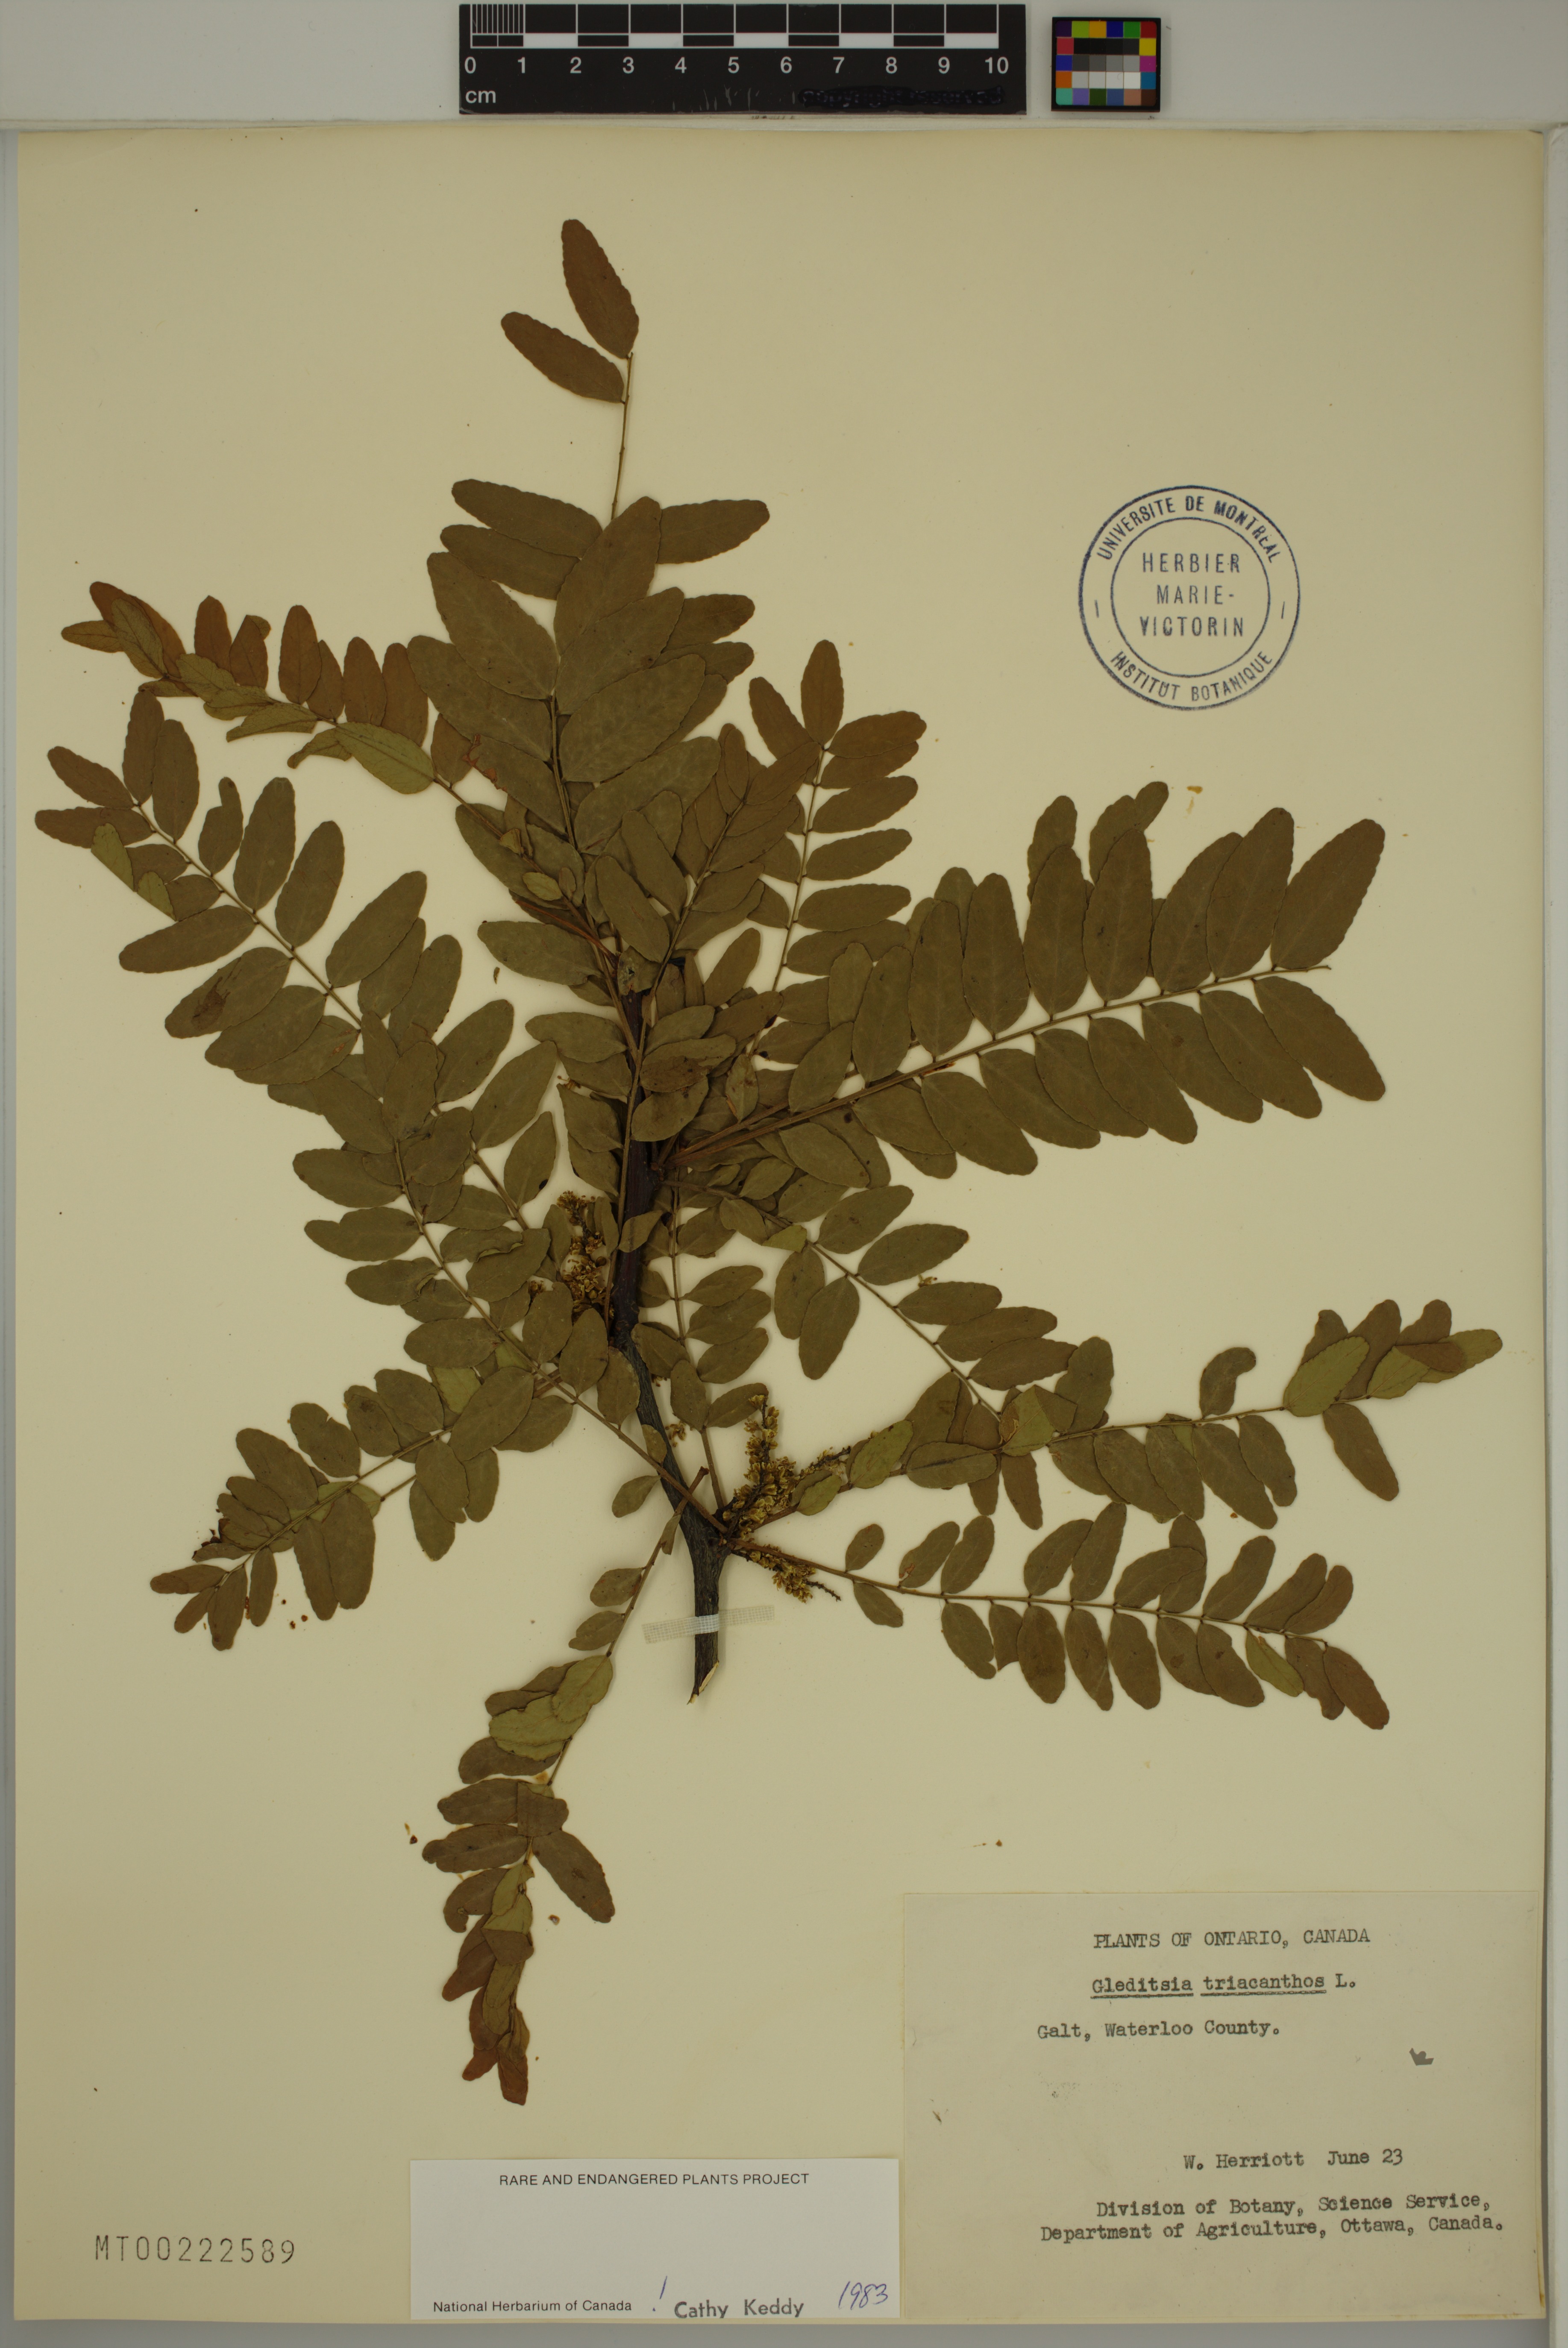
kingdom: Plantae
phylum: Tracheophyta
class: Magnoliopsida
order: Fabales
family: Fabaceae
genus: Gleditsia
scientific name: Gleditsia triacanthos
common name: Common honeylocust
